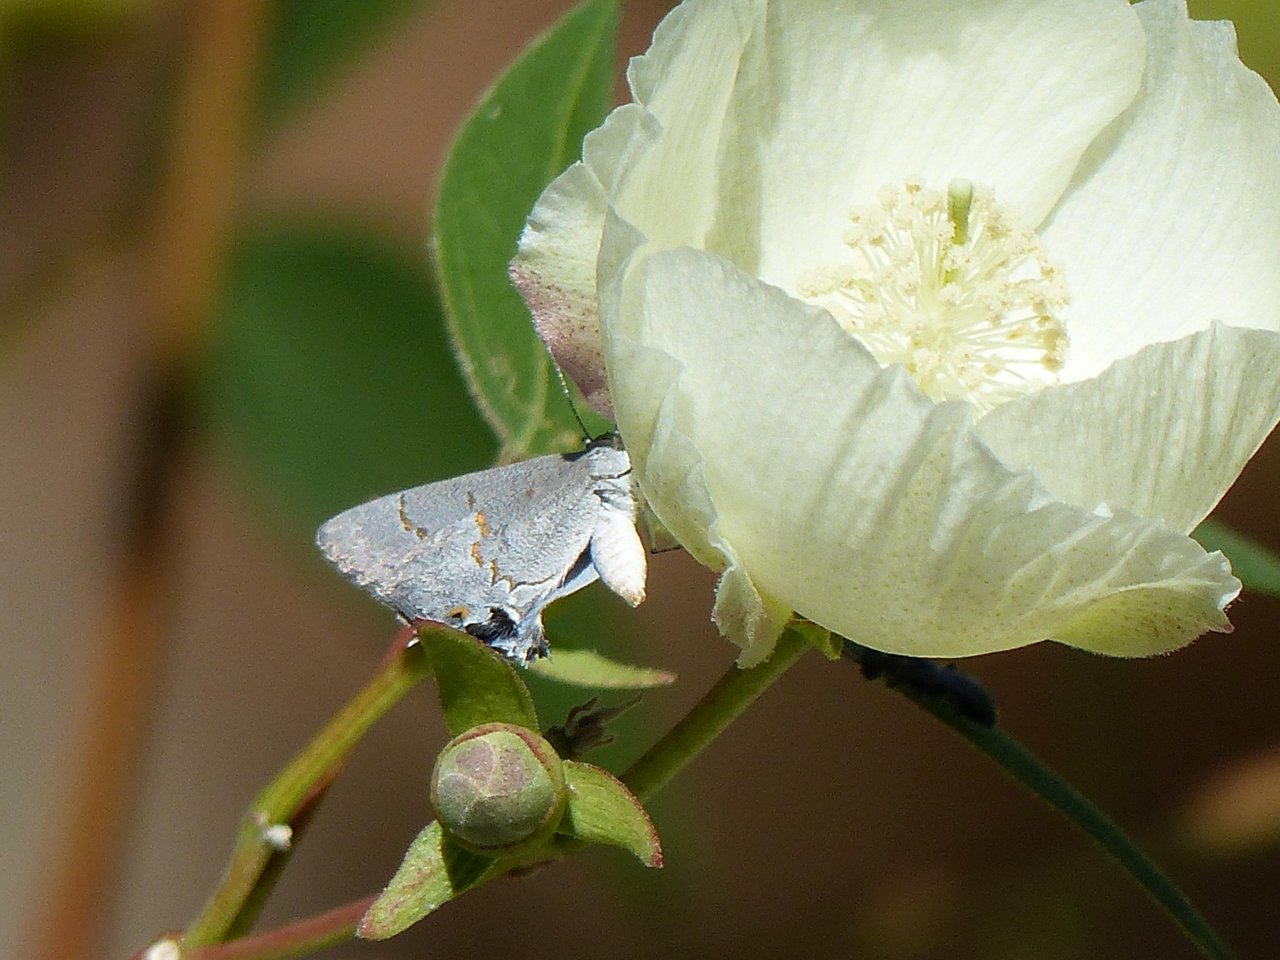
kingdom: Animalia
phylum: Arthropoda
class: Insecta
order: Lepidoptera
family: Lycaenidae
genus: Ministrymon
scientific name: Ministrymon leda
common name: Leda Ministreak
